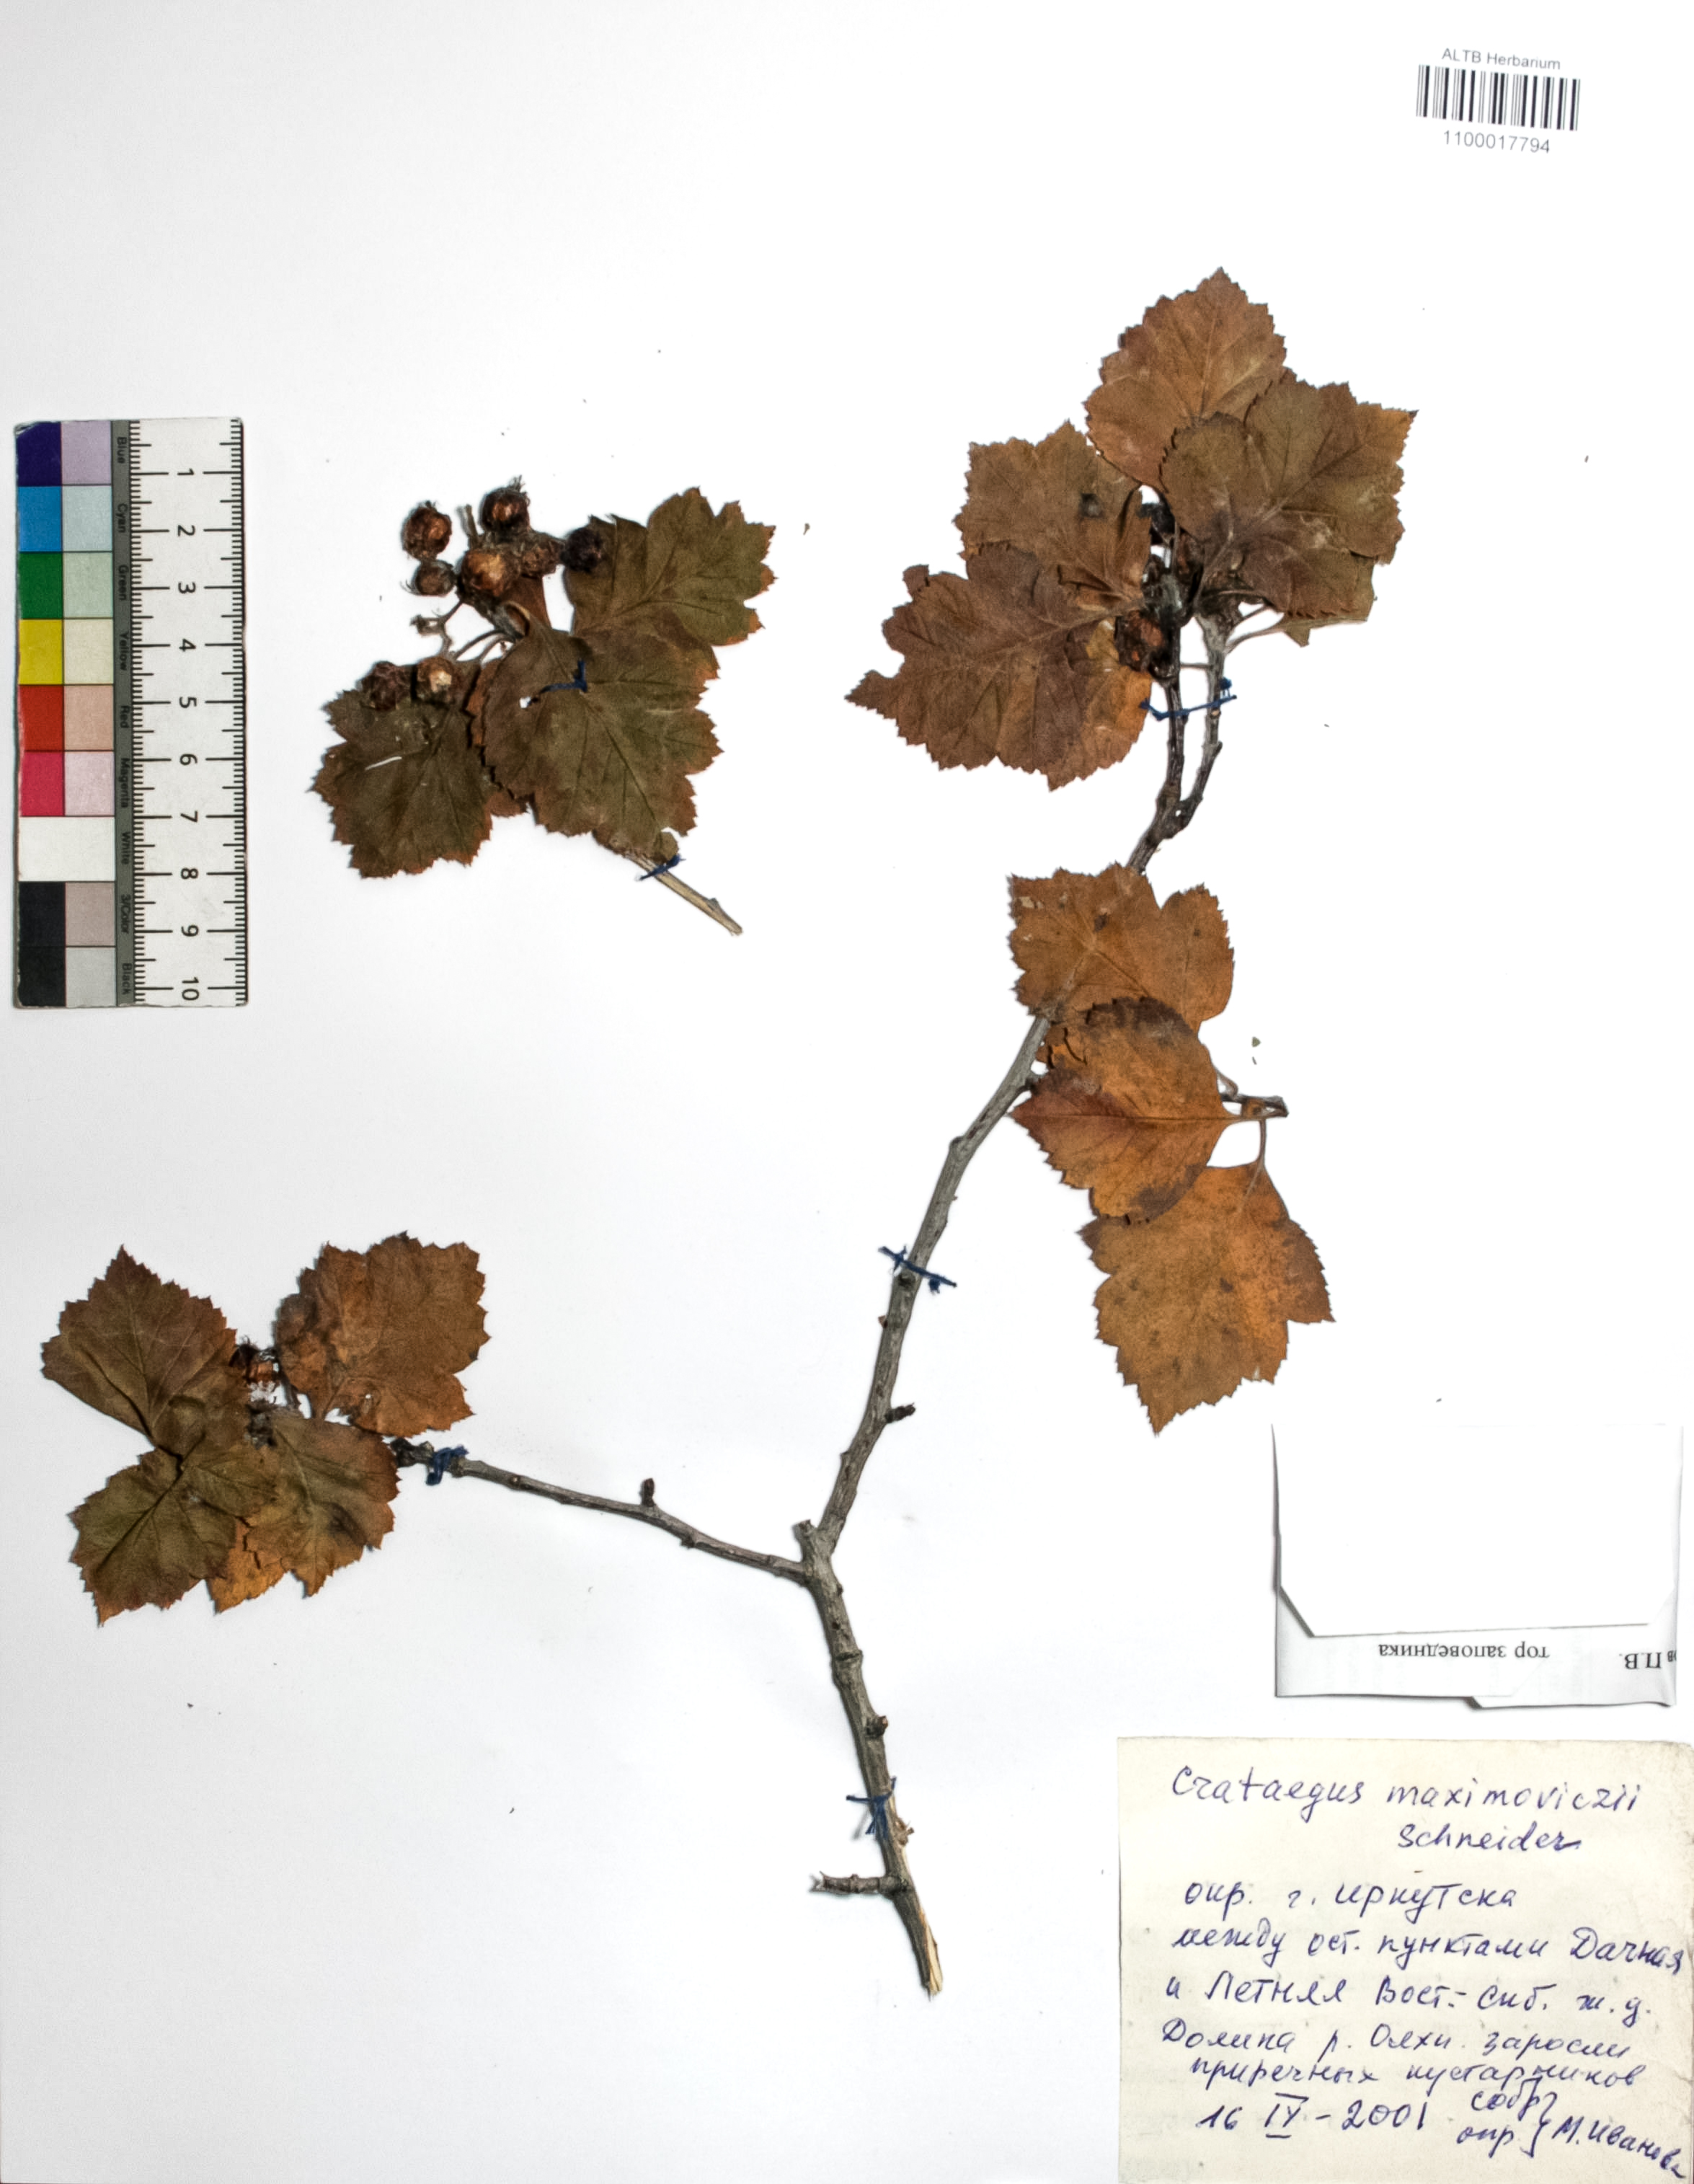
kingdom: Plantae
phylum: Tracheophyta
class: Magnoliopsida
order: Rosales
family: Rosaceae
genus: Crataegus
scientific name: Crataegus maximowiczii
